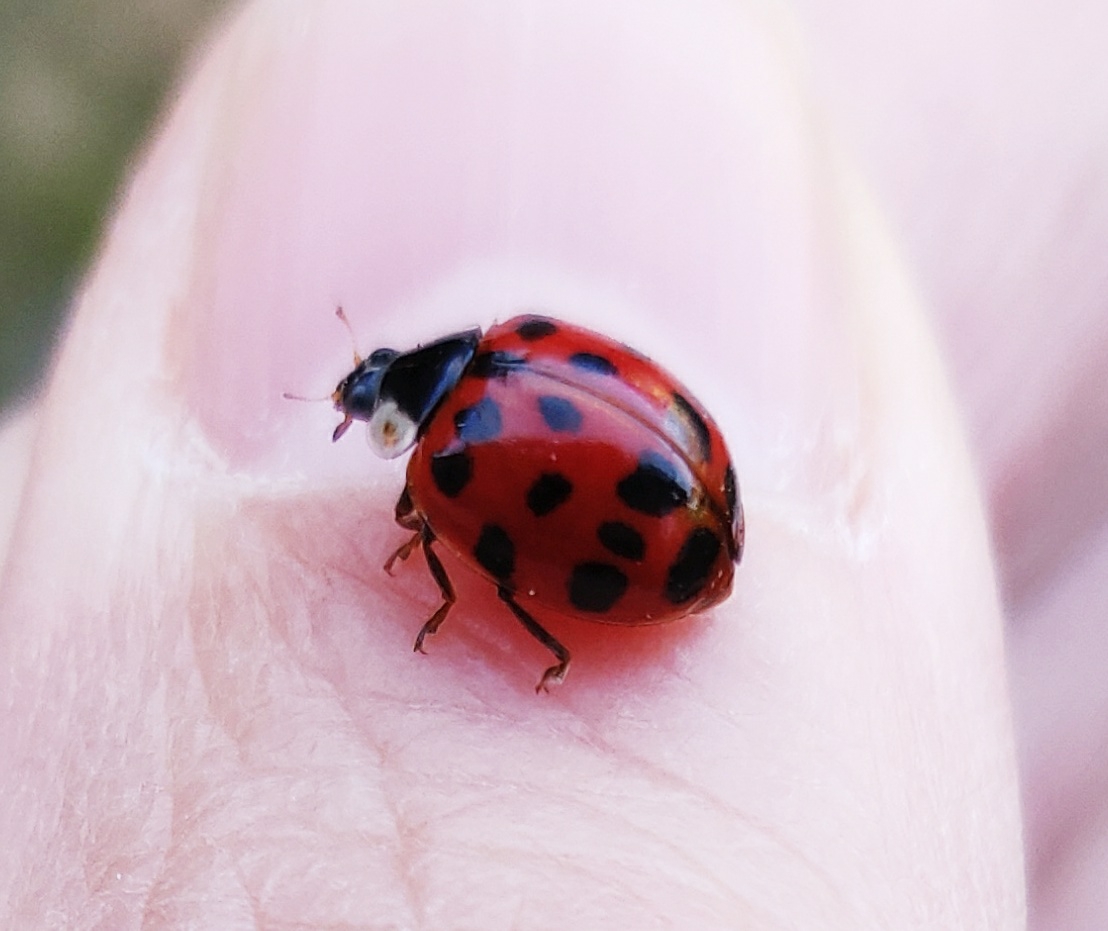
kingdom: Animalia
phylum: Arthropoda
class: Insecta
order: Coleoptera
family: Coccinellidae
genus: Harmonia
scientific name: Harmonia axyridis
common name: Harlekinmariehøne
